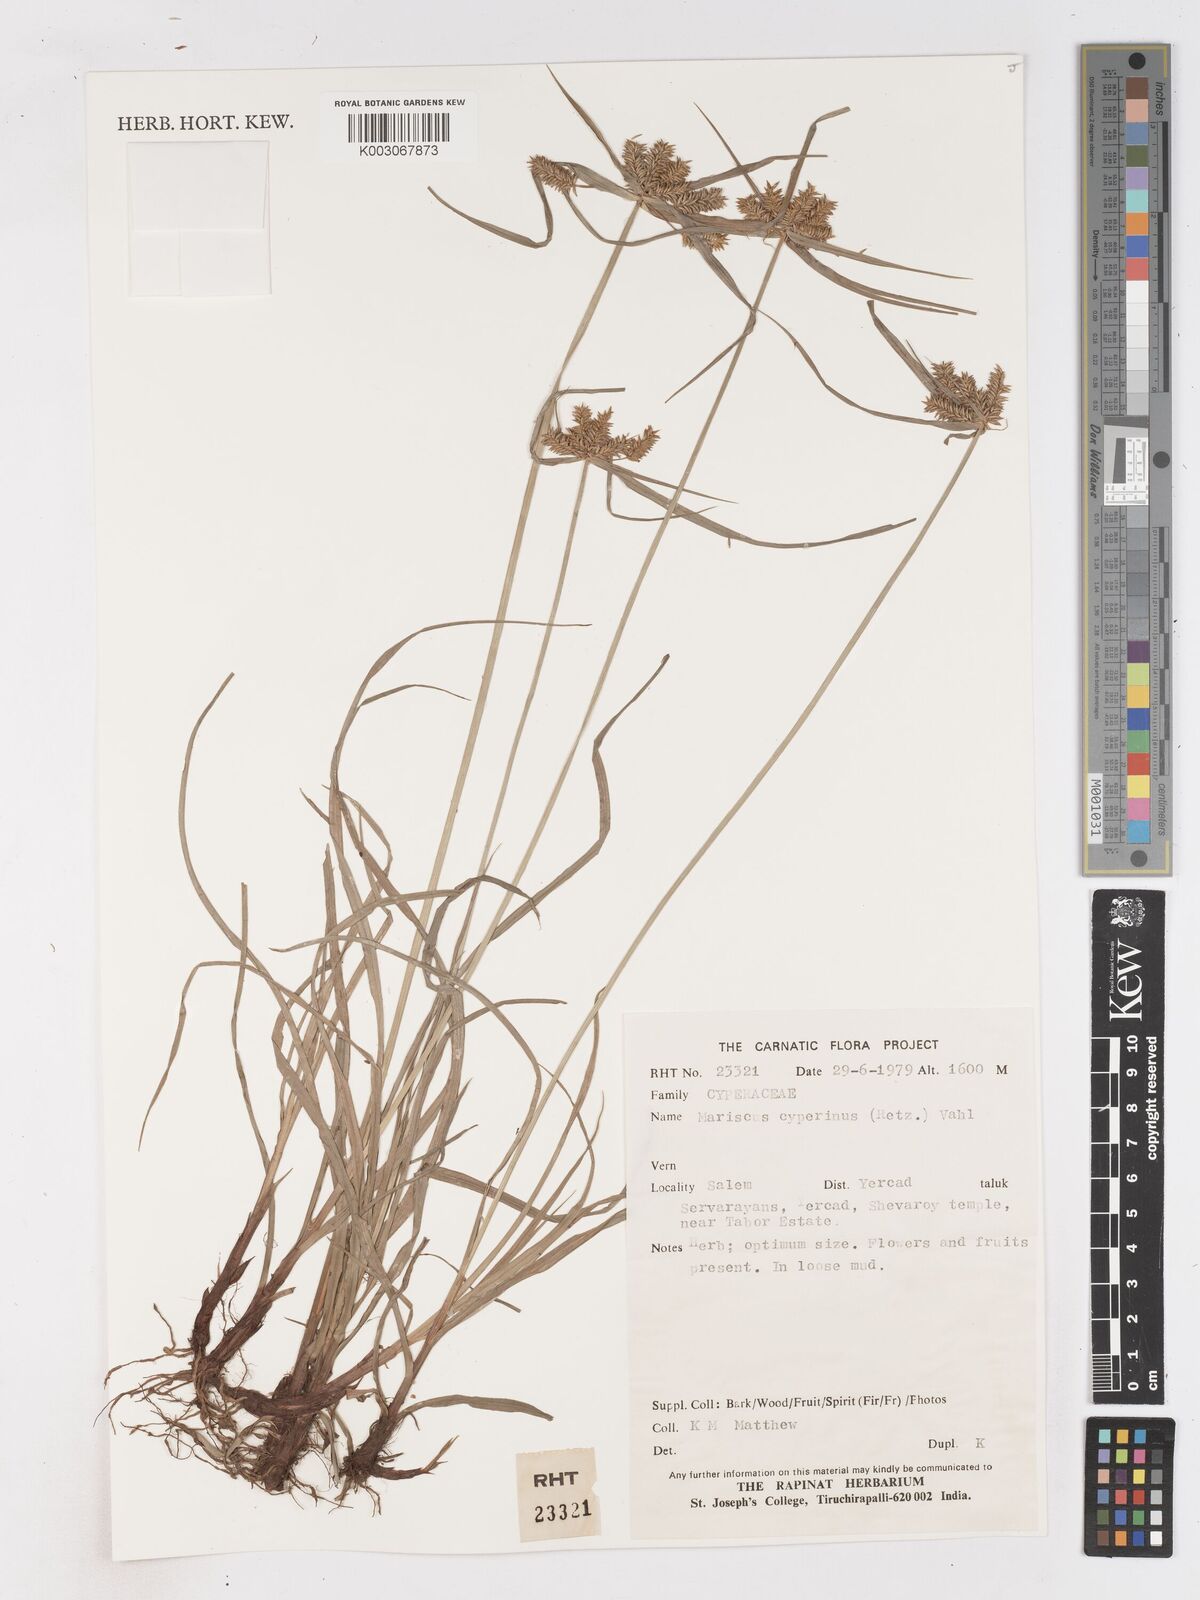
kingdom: Plantae
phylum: Tracheophyta
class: Liliopsida
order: Poales
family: Cyperaceae
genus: Cyperus
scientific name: Cyperus cyperinus
